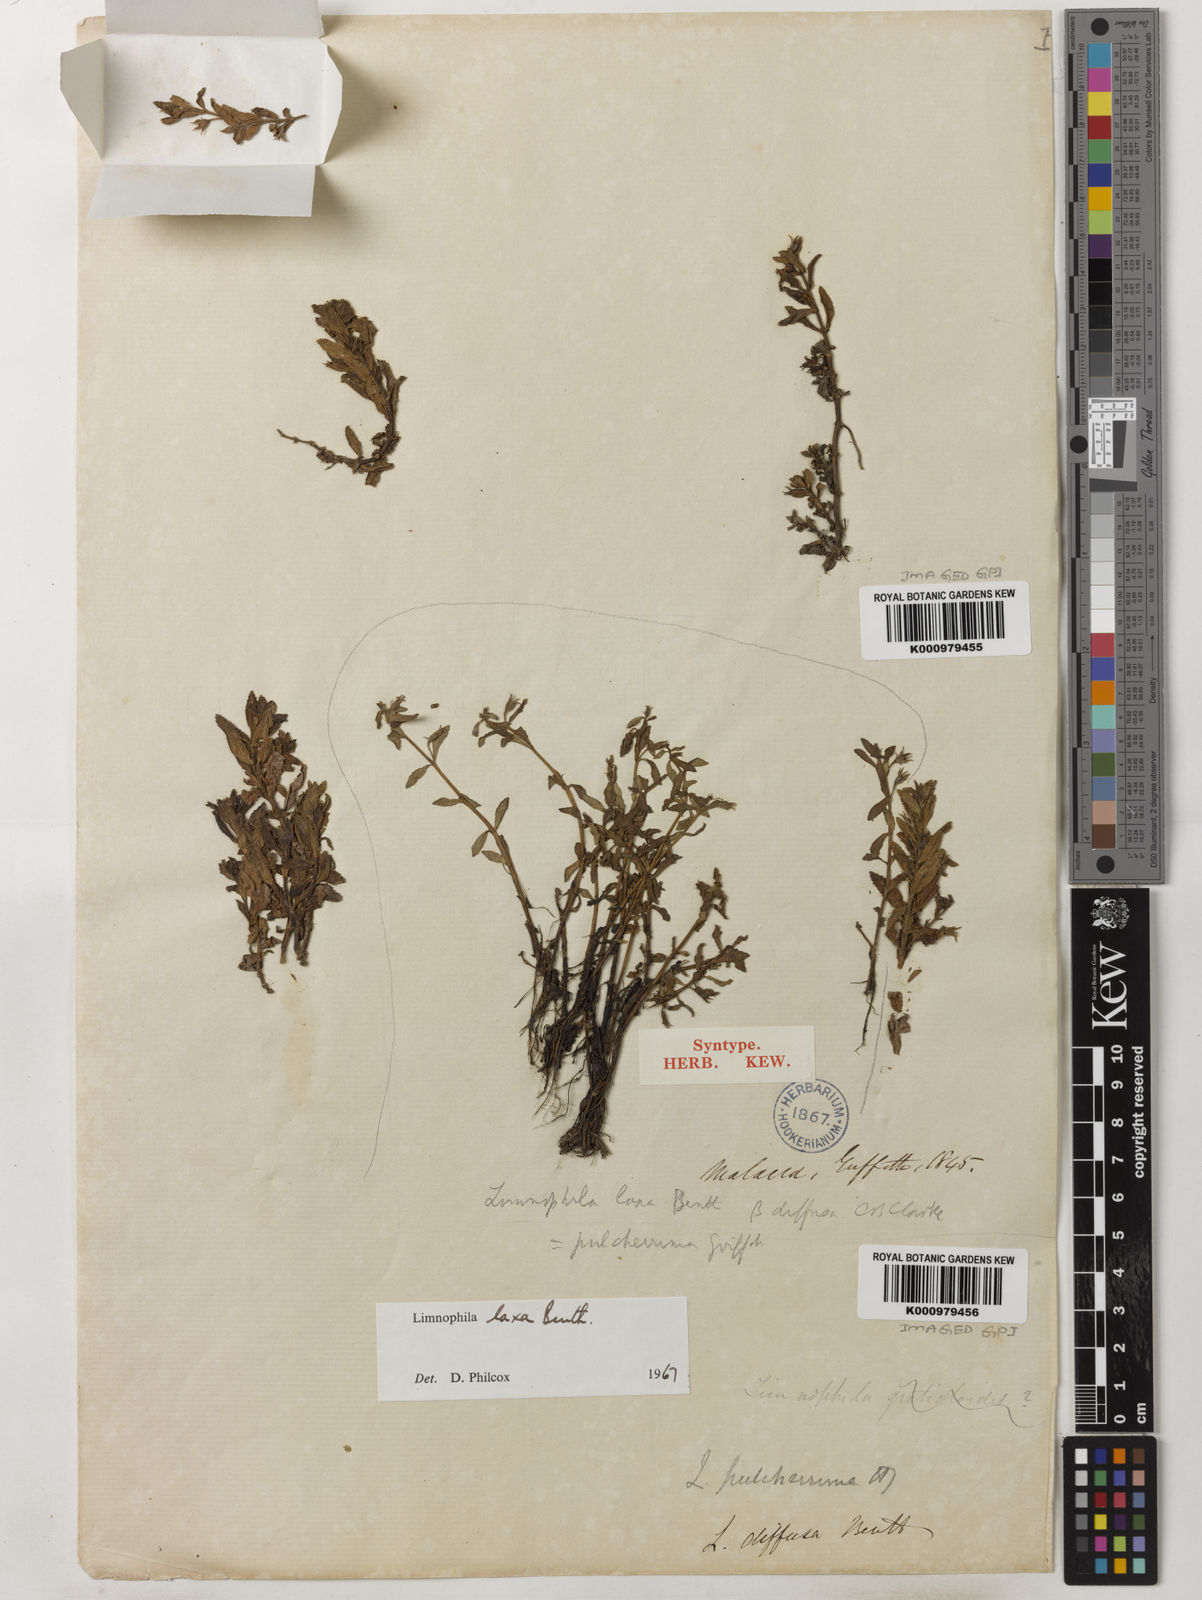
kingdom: Plantae
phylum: Tracheophyta
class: Magnoliopsida
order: Lamiales
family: Plantaginaceae
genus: Limnophila
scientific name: Limnophila laxa
